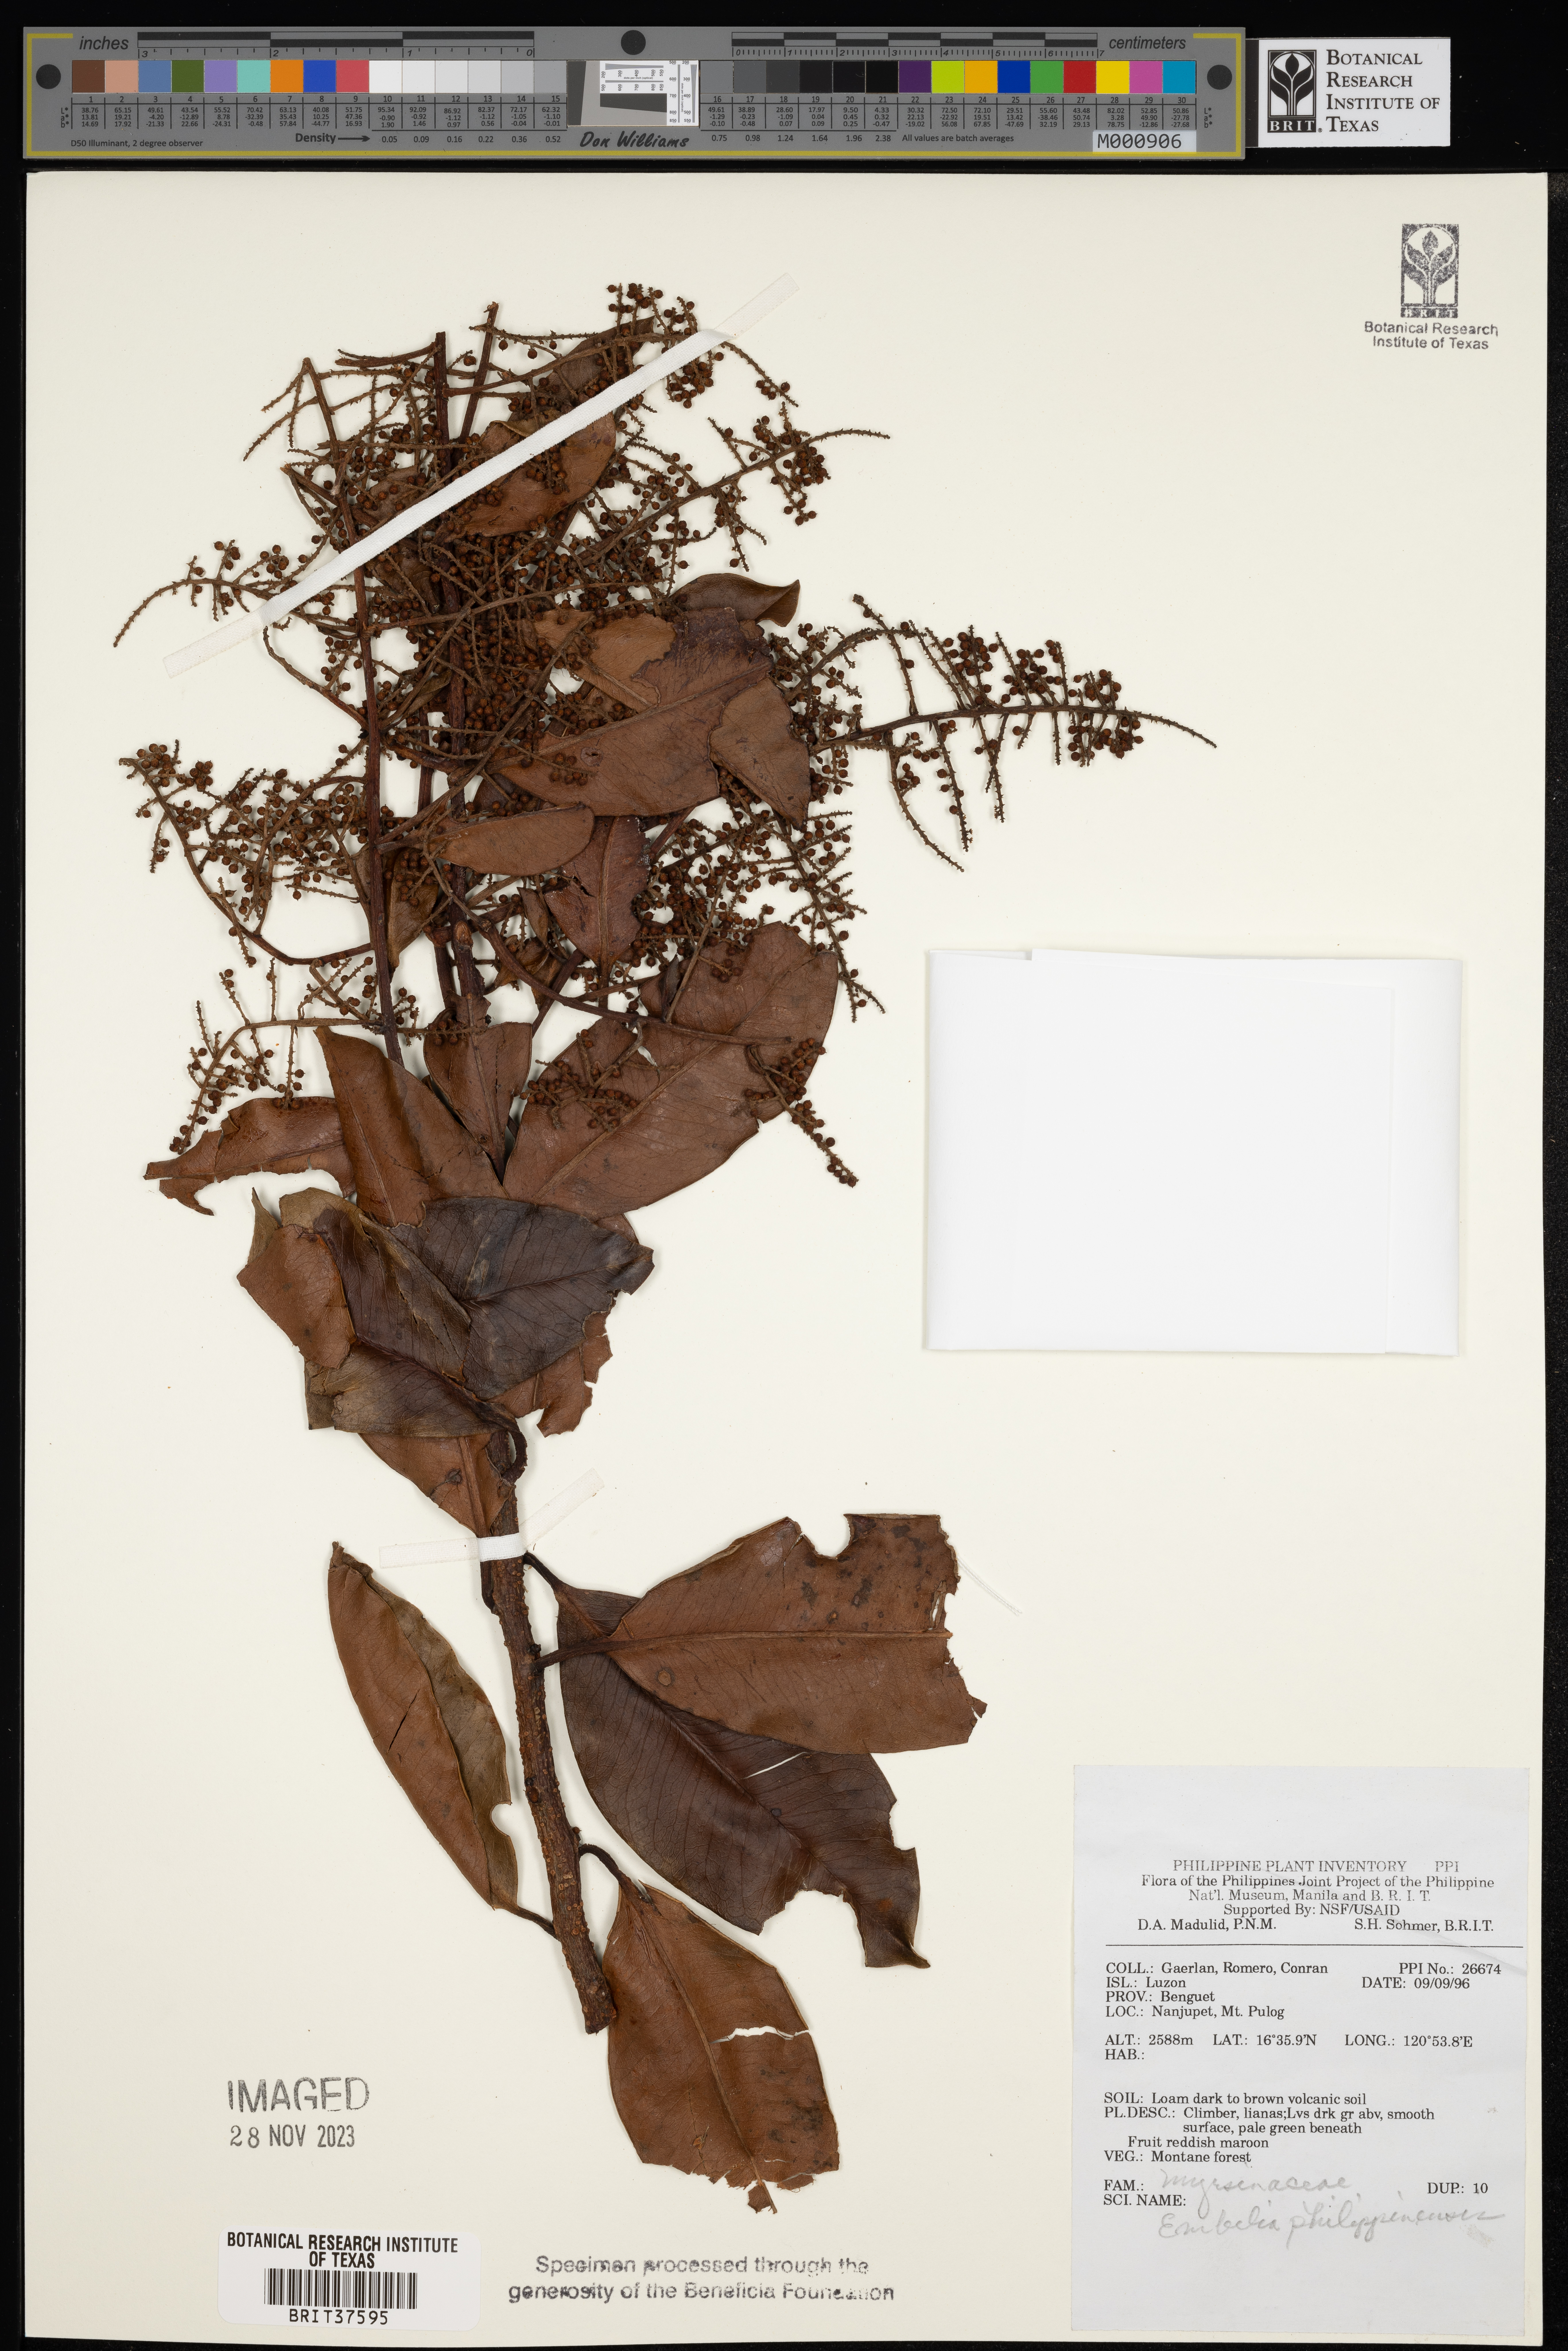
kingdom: Plantae
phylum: Tracheophyta
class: Magnoliopsida
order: Ericales
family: Primulaceae
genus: Embelia
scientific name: Embelia philippinensis
